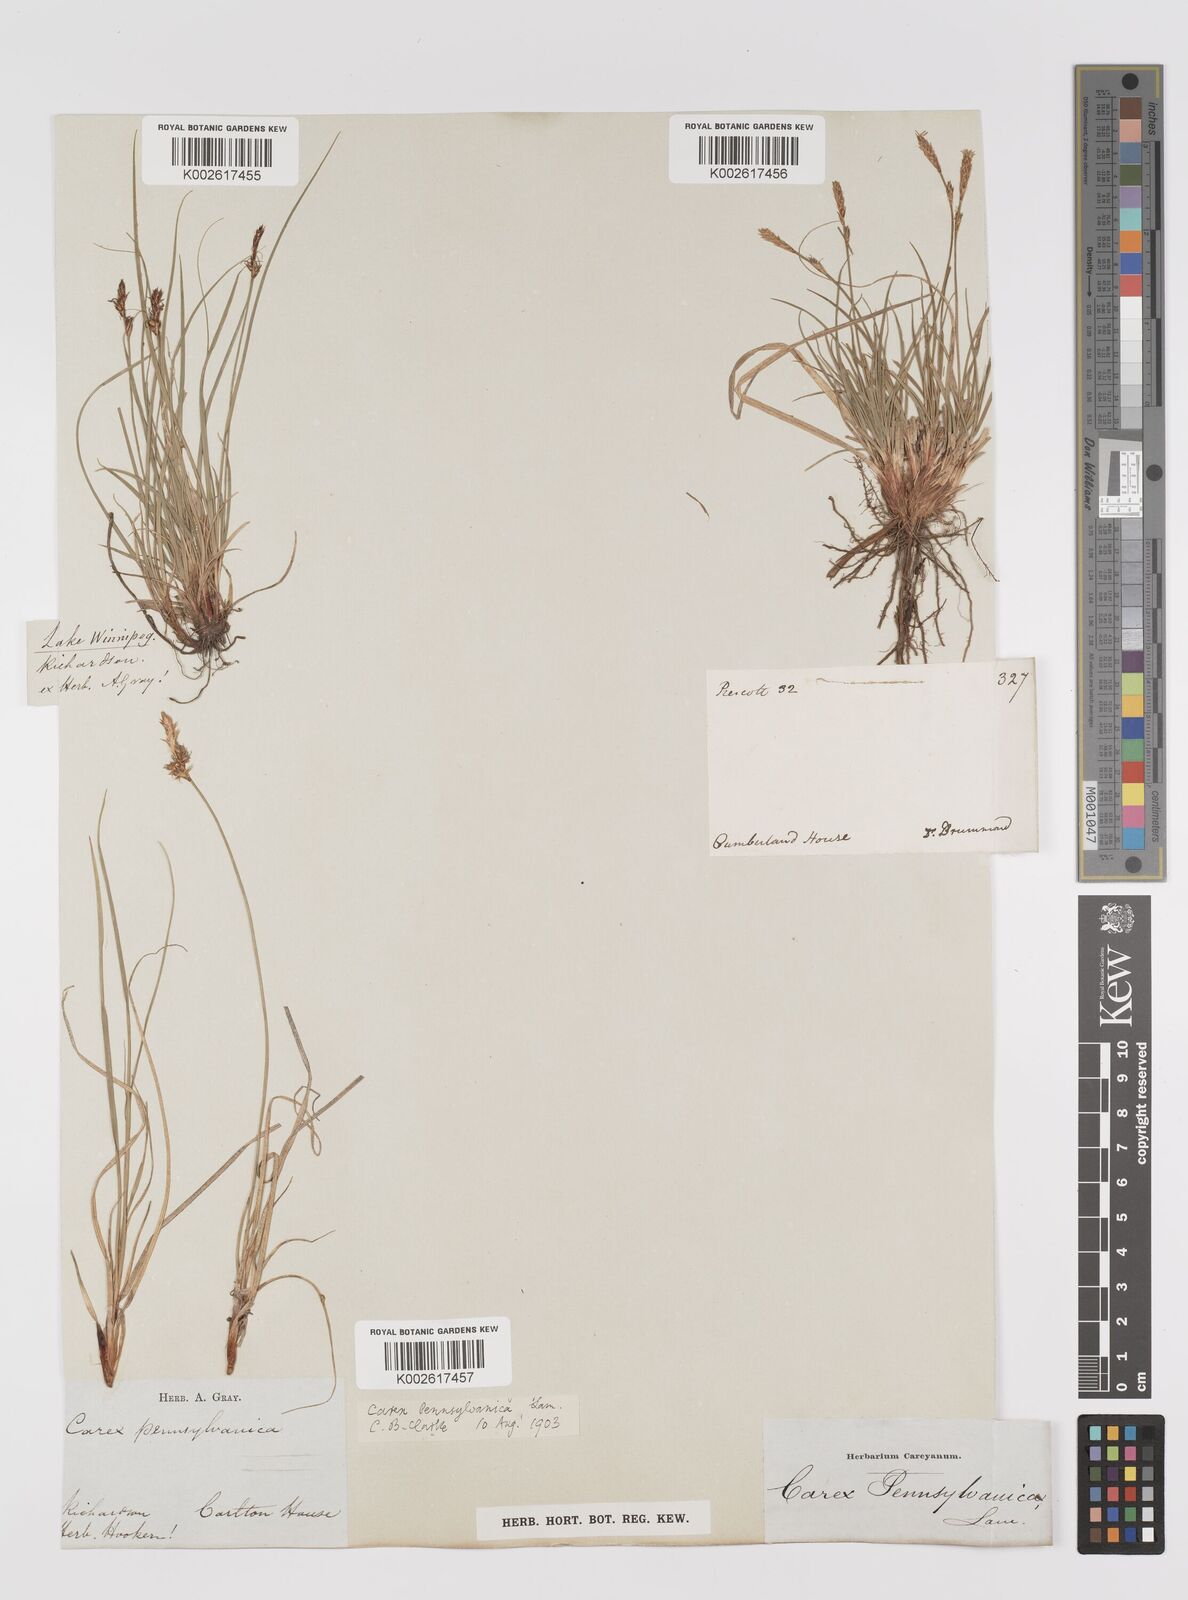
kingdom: Plantae
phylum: Tracheophyta
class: Liliopsida
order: Poales
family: Cyperaceae
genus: Carex
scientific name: Carex pensylvanica
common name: Common oak sedge
